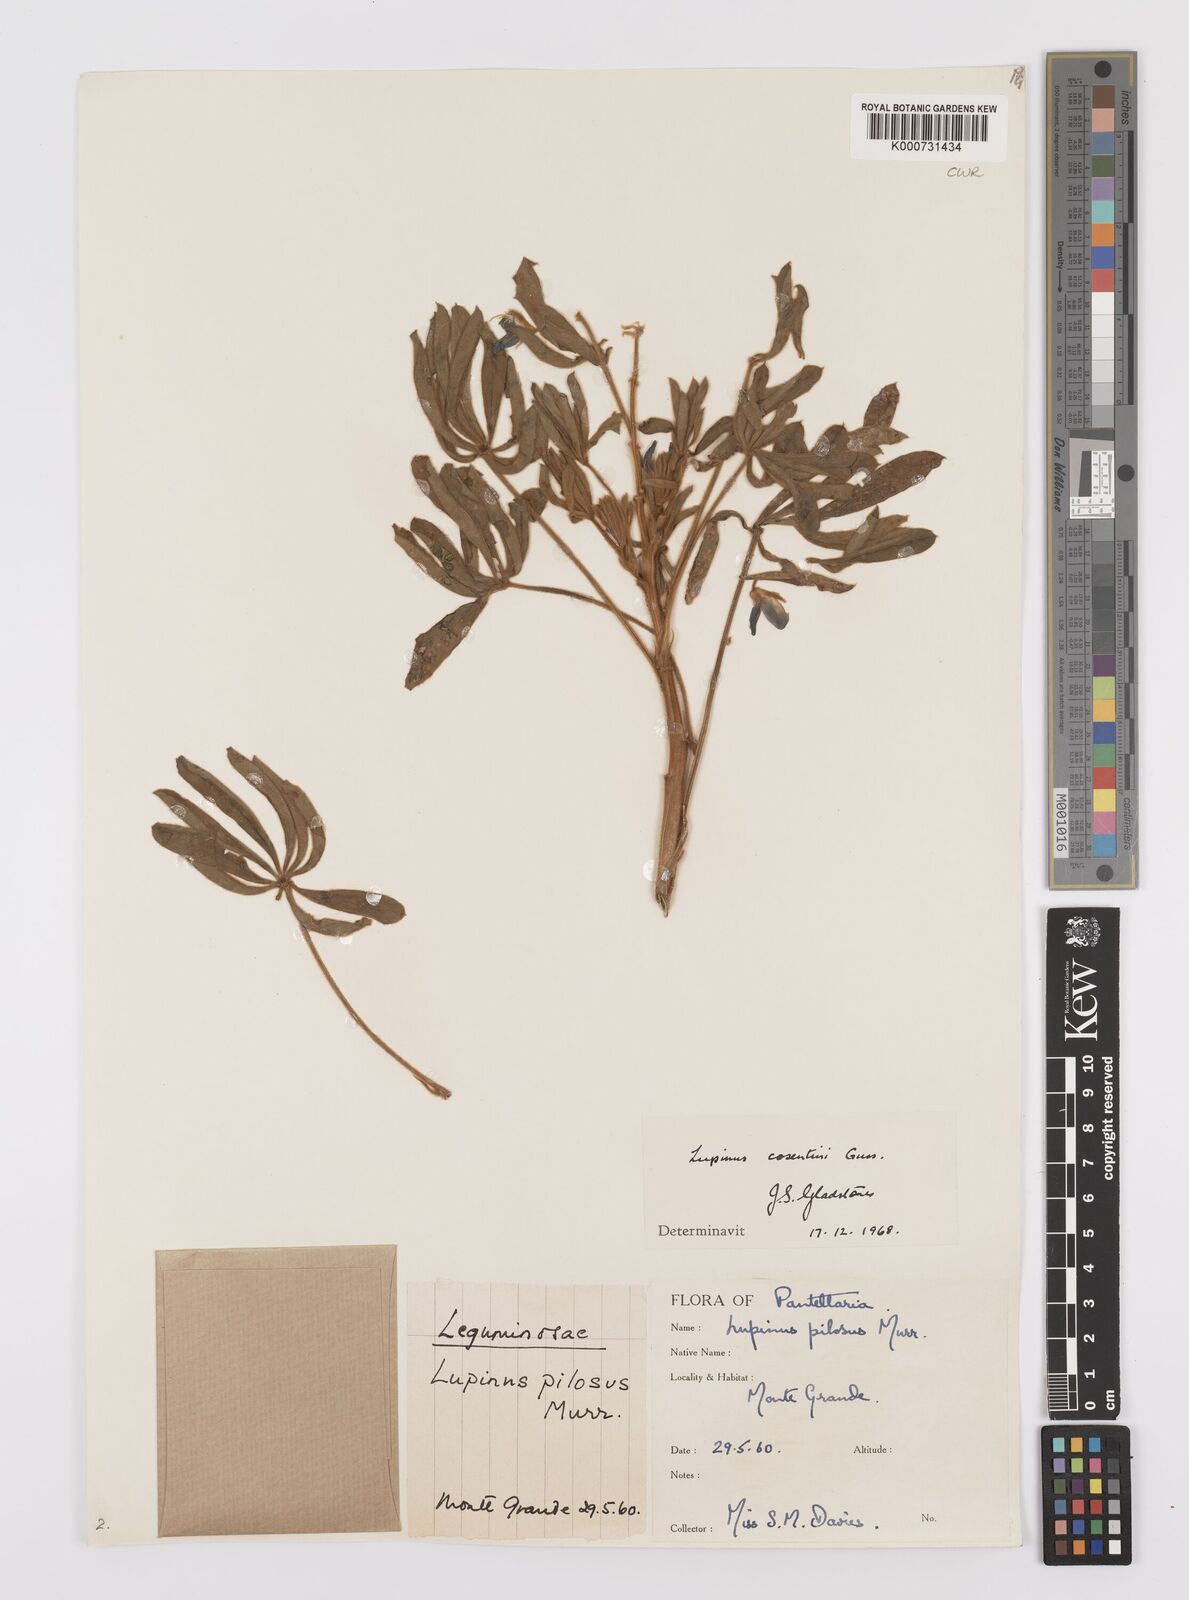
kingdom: Plantae
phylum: Tracheophyta
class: Magnoliopsida
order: Fabales
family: Fabaceae
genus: Lupinus
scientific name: Lupinus
